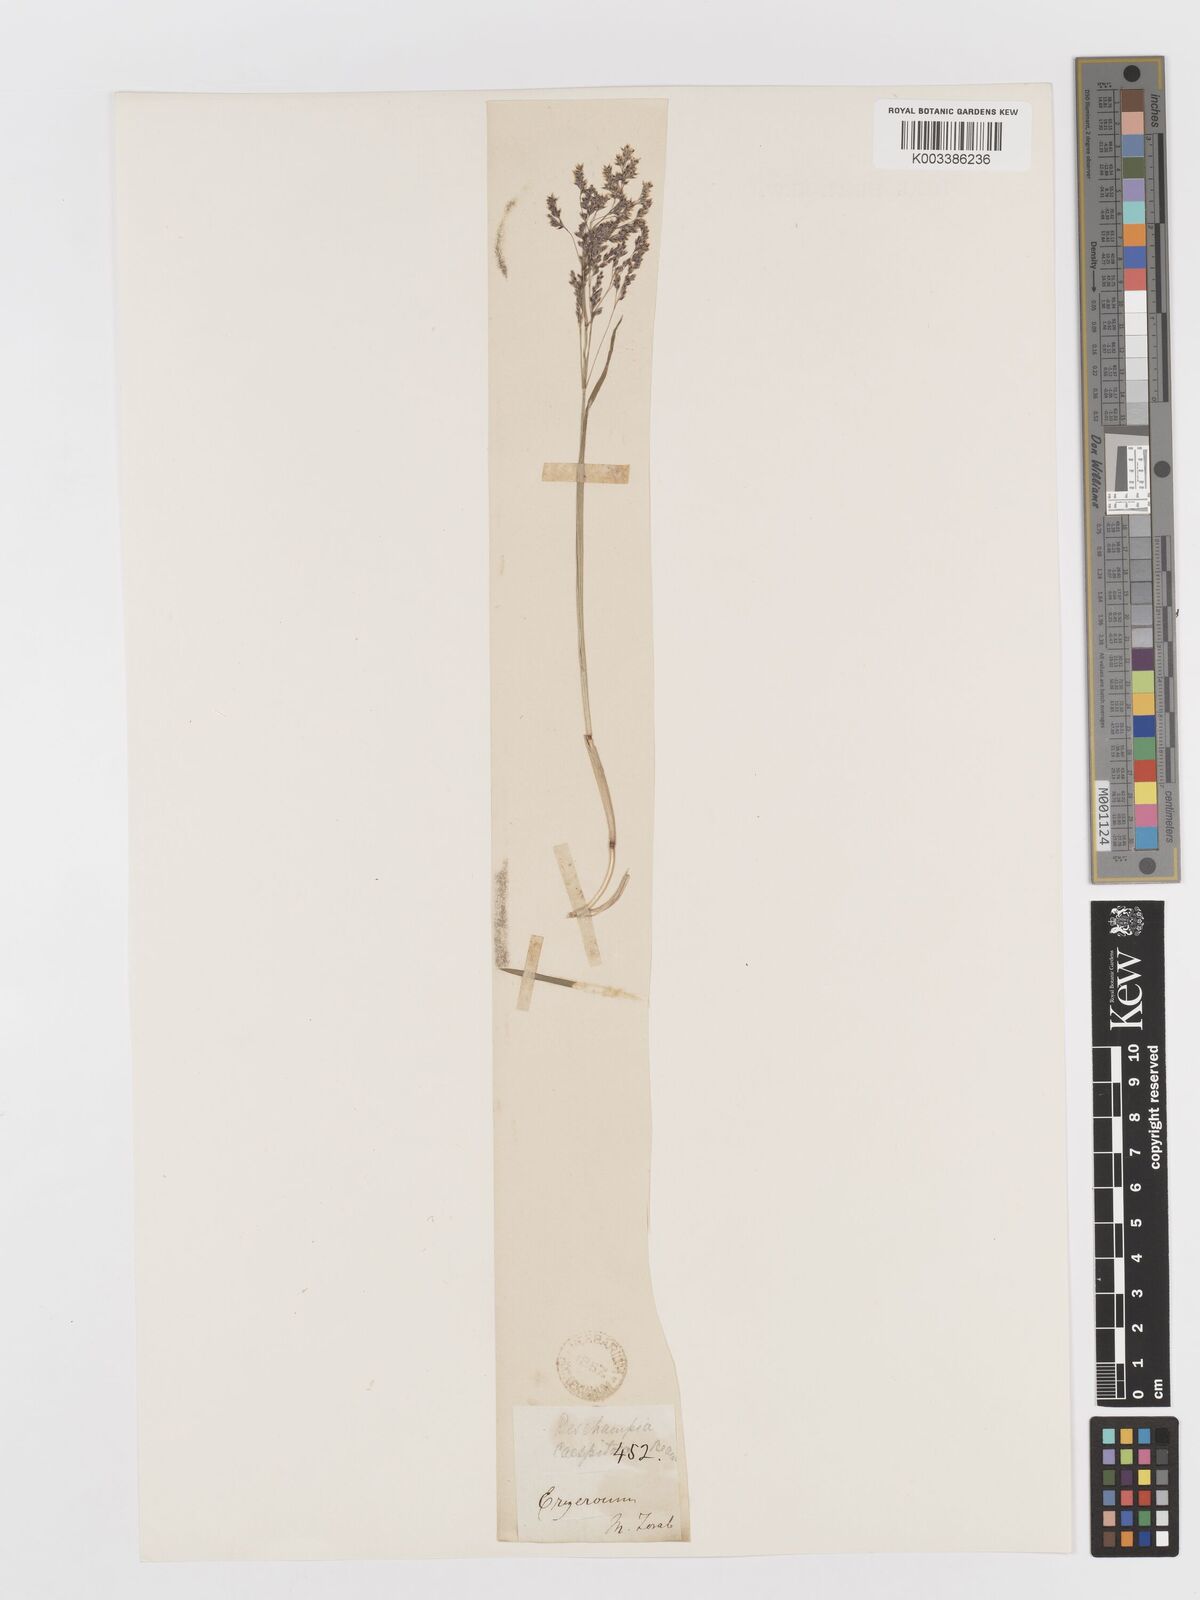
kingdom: Plantae
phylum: Tracheophyta
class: Liliopsida
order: Poales
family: Poaceae
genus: Deschampsia
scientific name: Deschampsia cespitosa
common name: Tufted hair-grass
